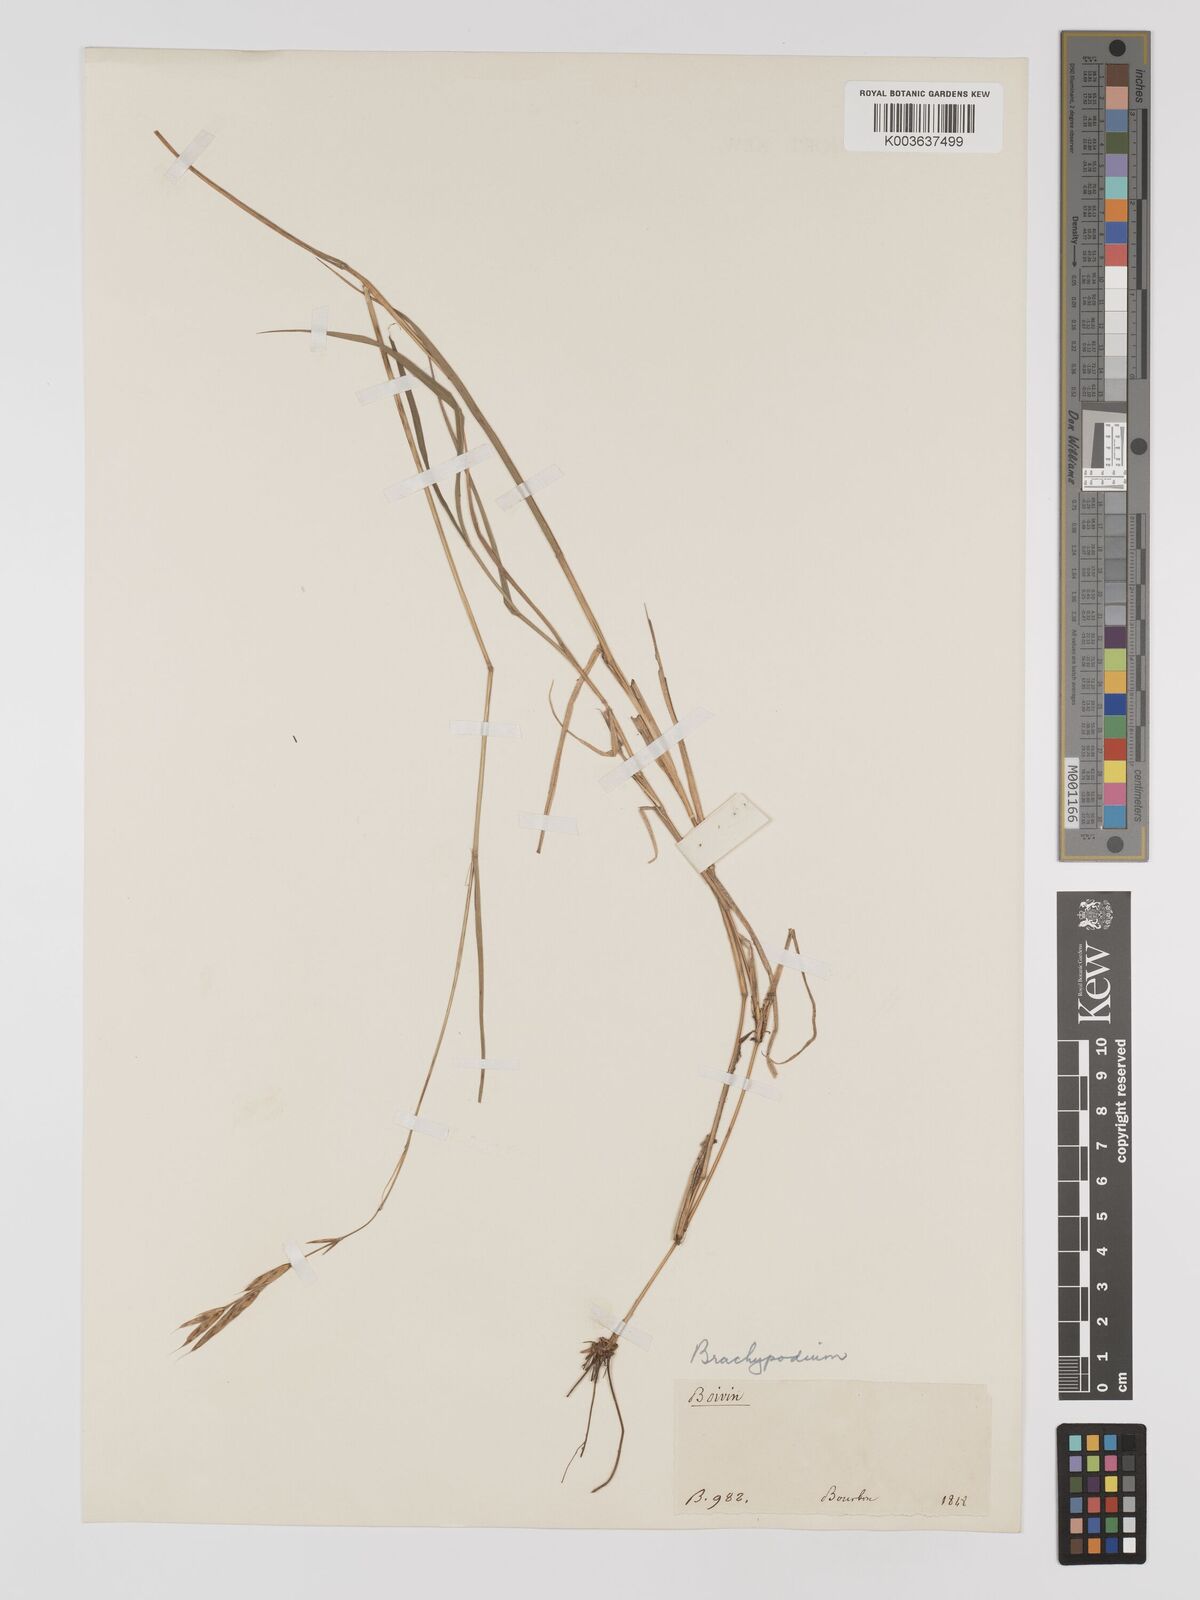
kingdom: Plantae
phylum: Tracheophyta
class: Liliopsida
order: Poales
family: Poaceae
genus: Brachypodium
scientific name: Brachypodium flexum
